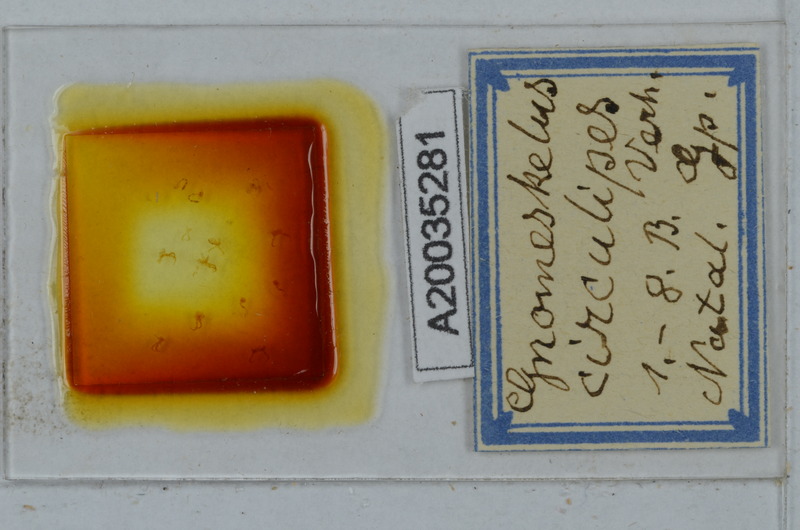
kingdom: Animalia
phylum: Arthropoda
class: Diplopoda
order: Polydesmida
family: Dalodesmidae
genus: Gnomeskelus
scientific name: Gnomeskelus circulipes
